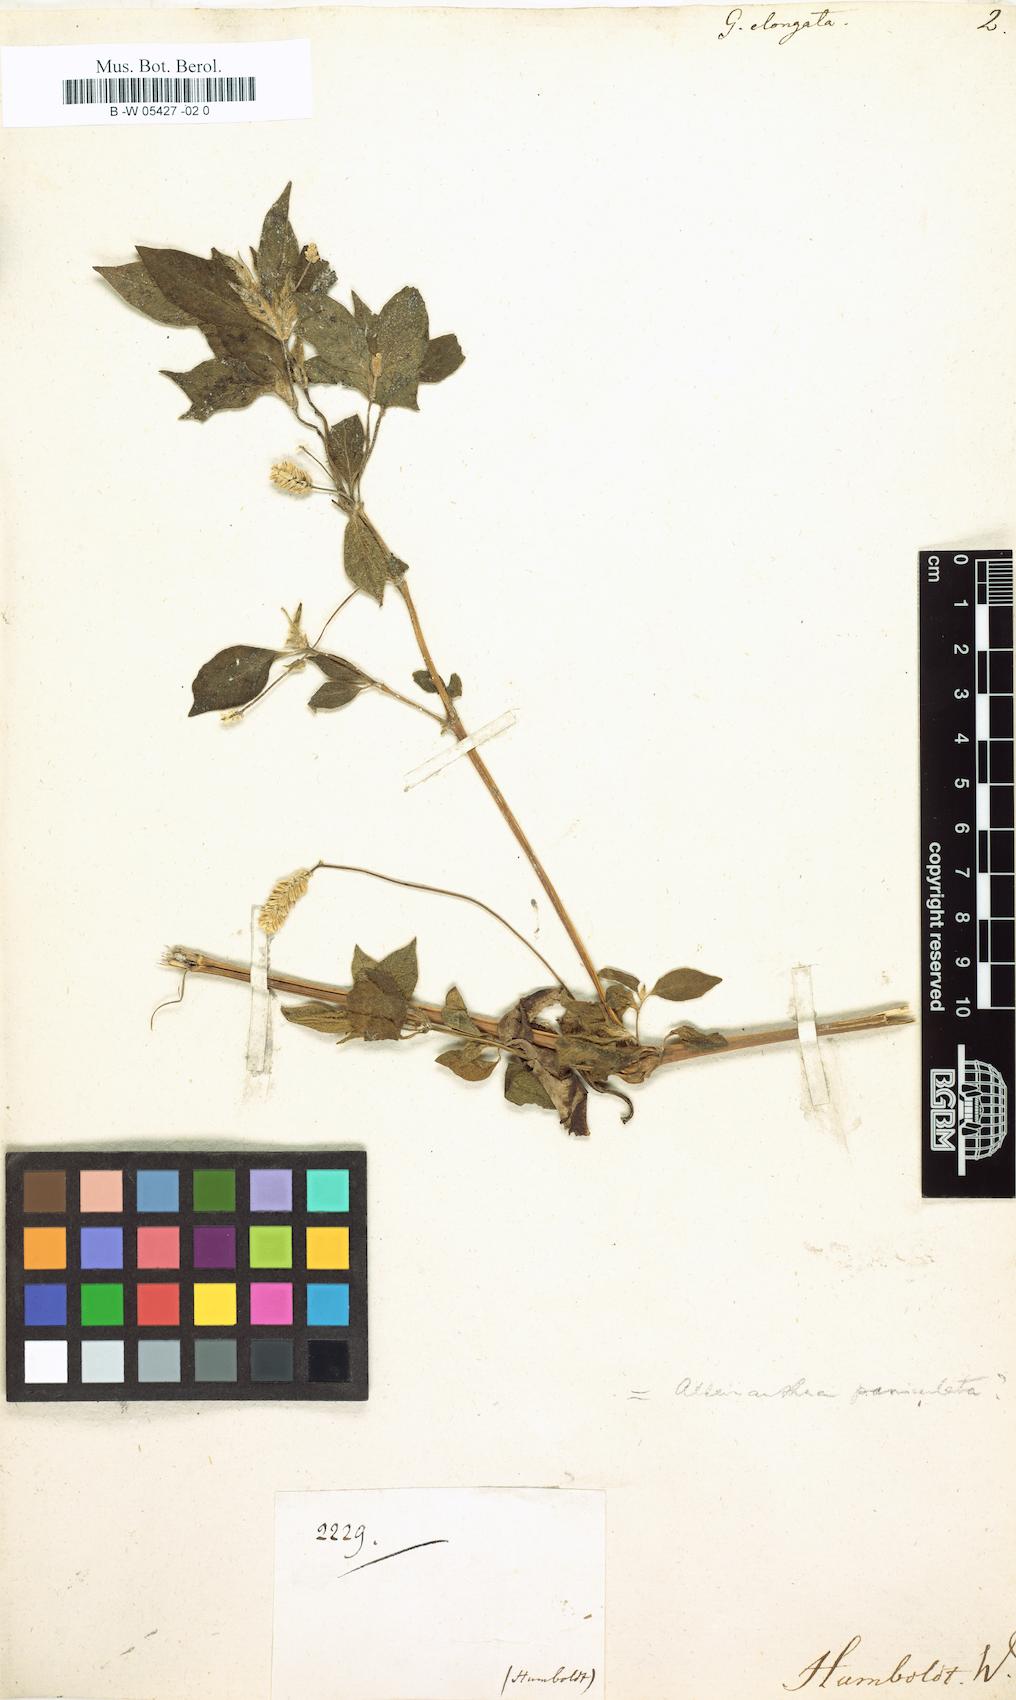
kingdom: Plantae
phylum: Tracheophyta
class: Magnoliopsida
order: Caryophyllales
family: Amaranthaceae
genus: Gomphrena
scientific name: Gomphrena elongata
